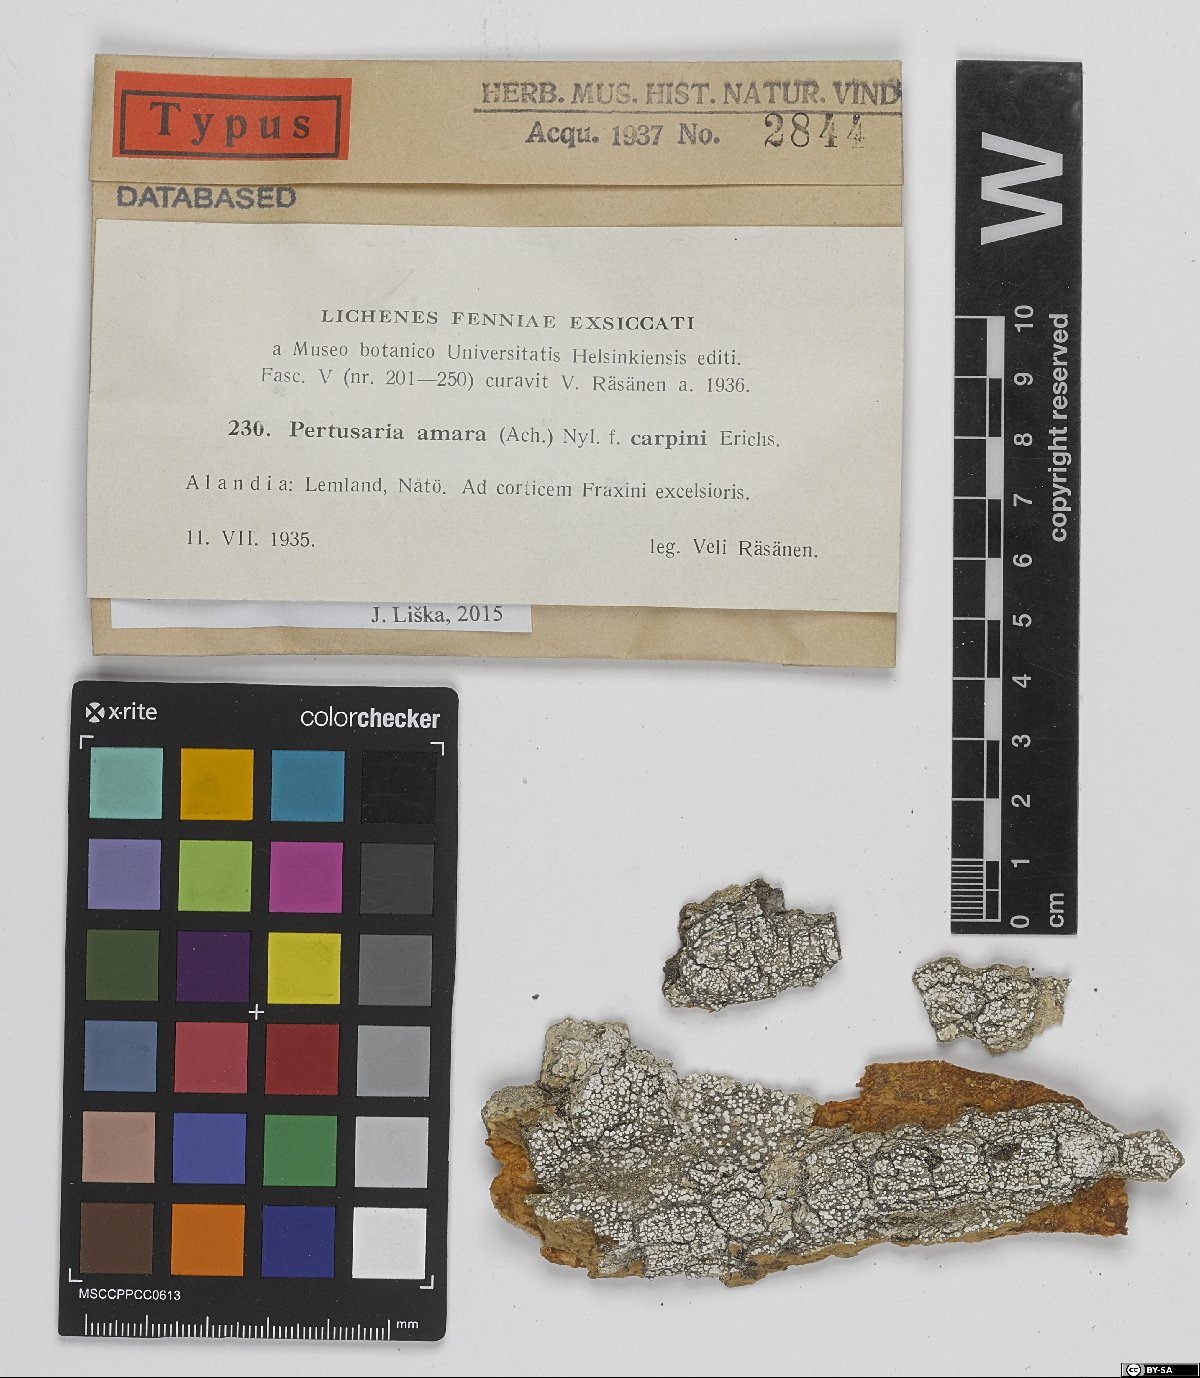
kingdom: Fungi
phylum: Ascomycota
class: Lecanoromycetes
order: Pertusariales
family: Pertusariaceae
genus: Lepra
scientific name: Lepra amara
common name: Bitter wart lichen
